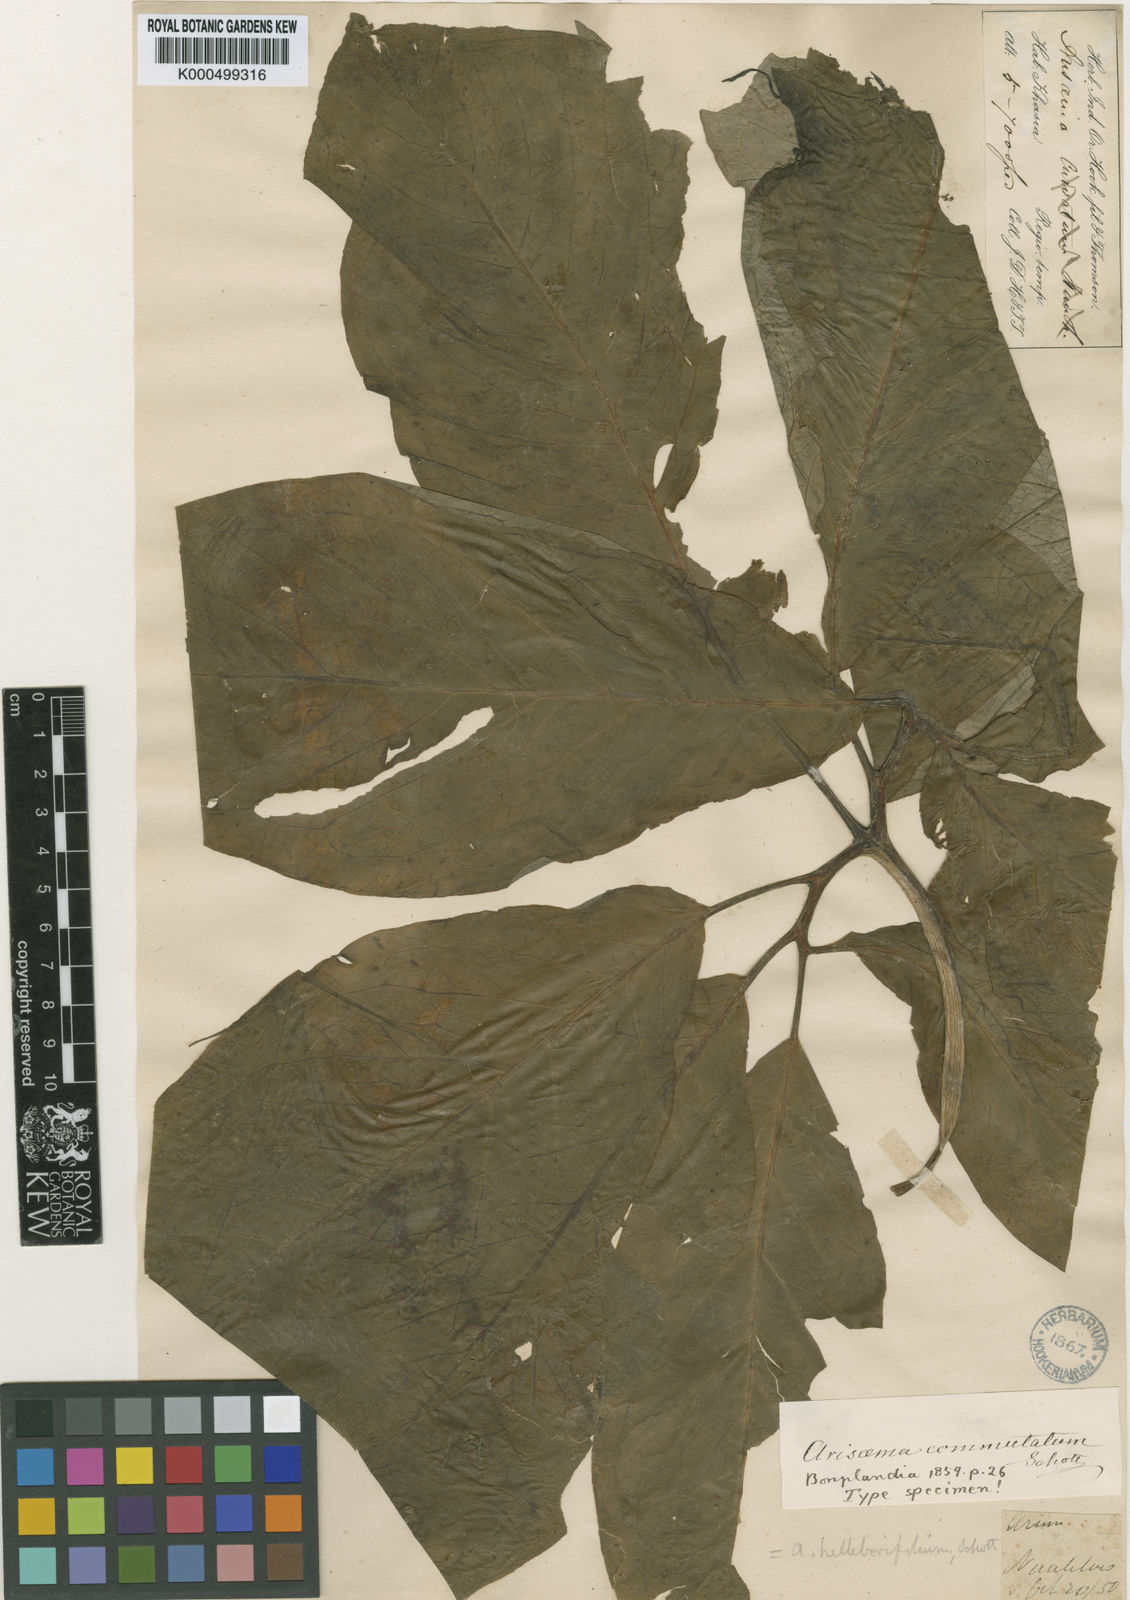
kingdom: Plantae
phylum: Tracheophyta
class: Liliopsida
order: Alismatales
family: Araceae
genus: Arisaema
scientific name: Arisaema tortuosum
